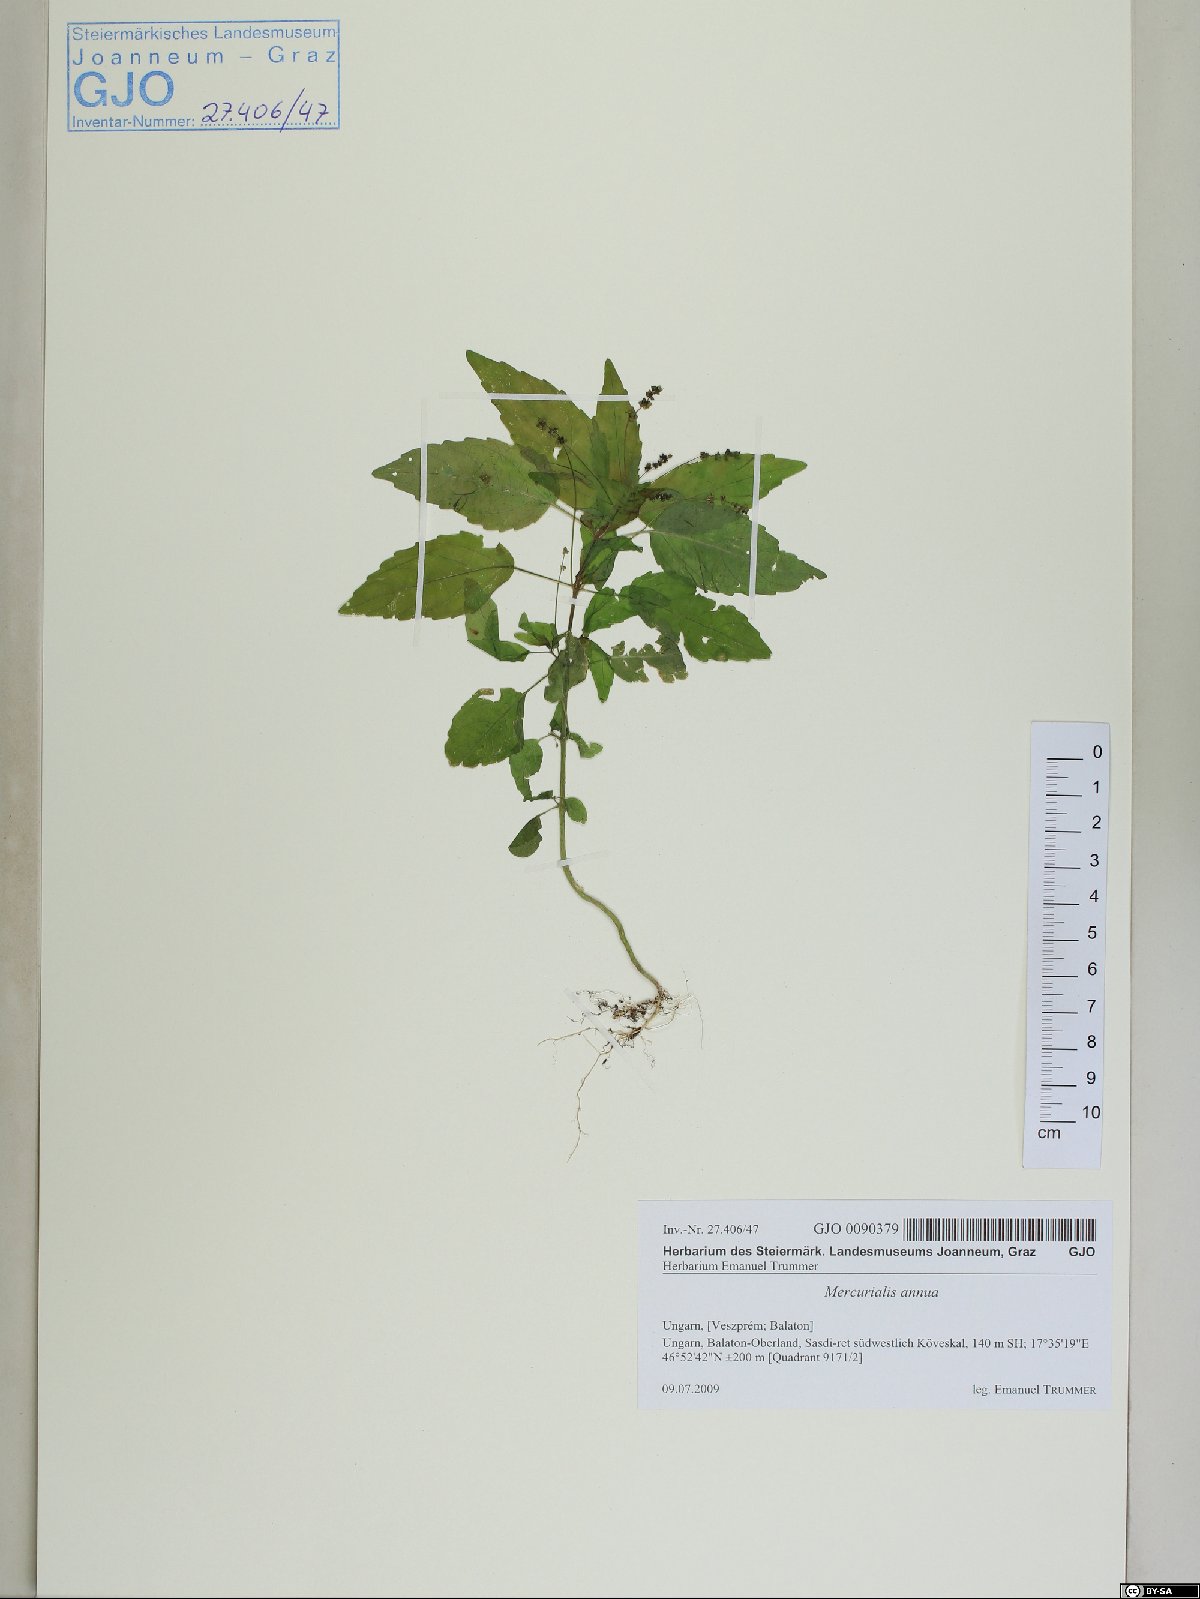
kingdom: Plantae
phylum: Tracheophyta
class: Magnoliopsida
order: Malpighiales
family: Euphorbiaceae
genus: Mercurialis
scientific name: Mercurialis annua
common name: Annual mercury
